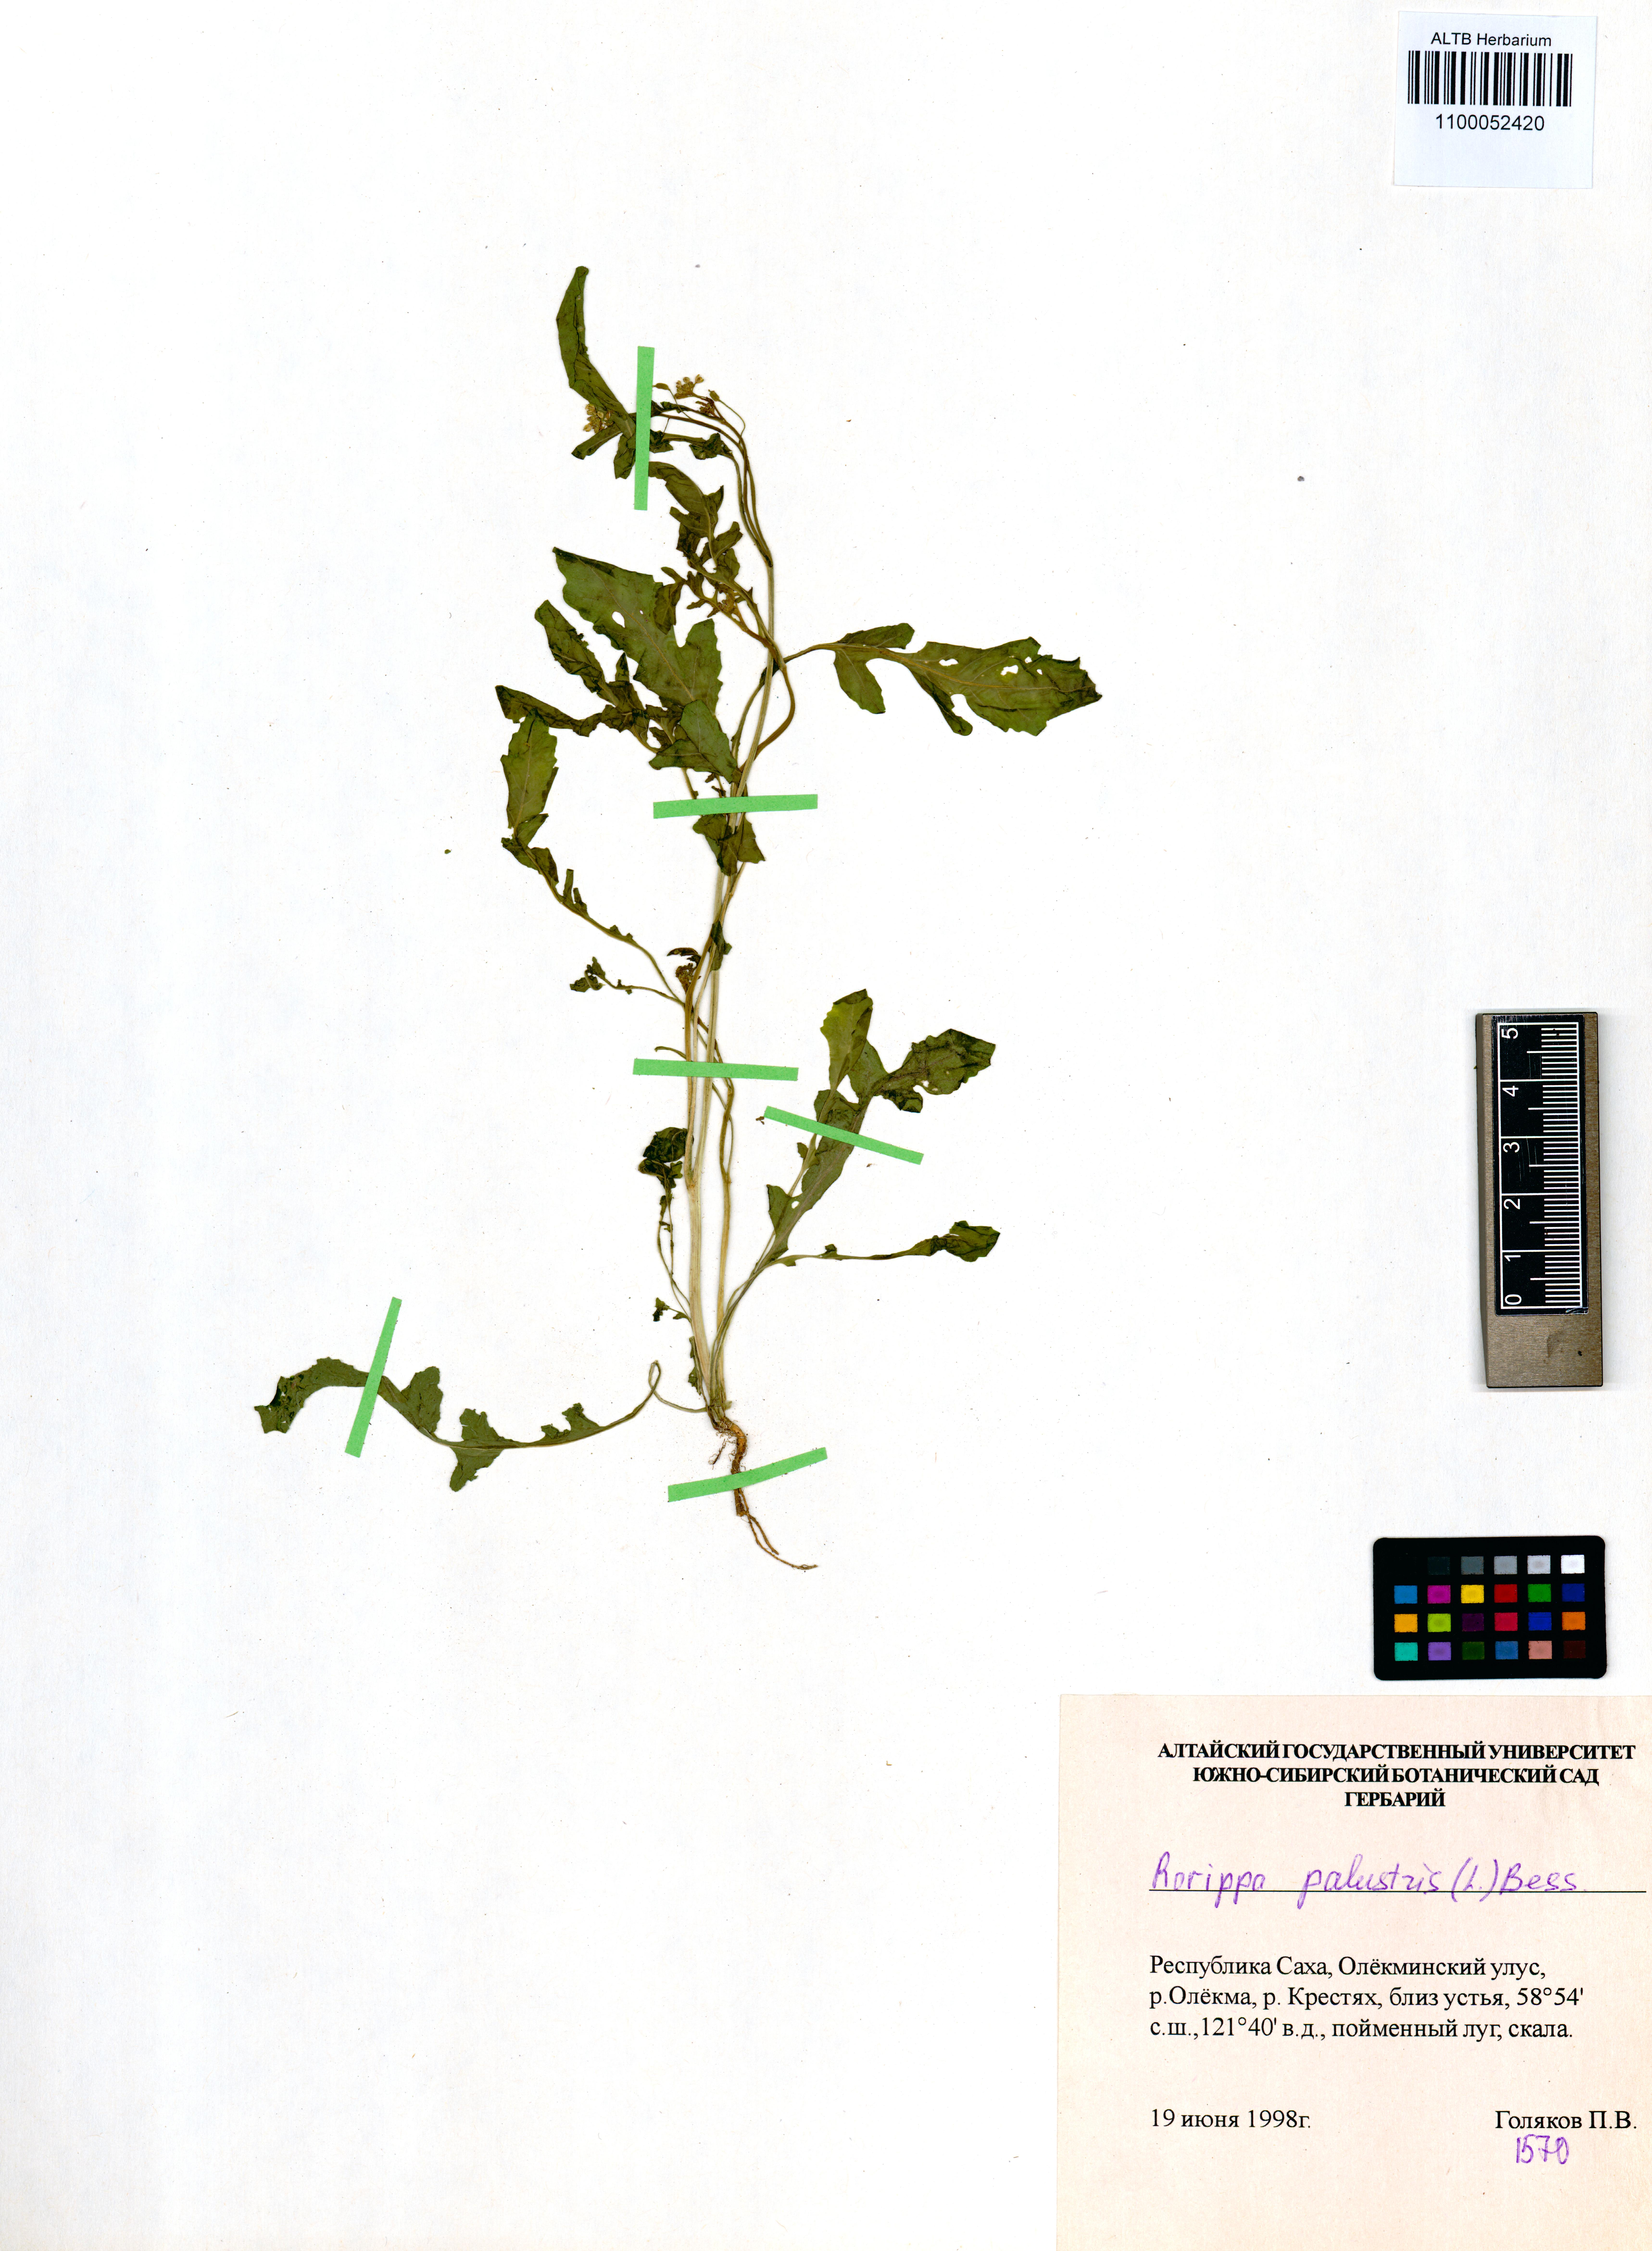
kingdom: Plantae
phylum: Tracheophyta
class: Magnoliopsida
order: Brassicales
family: Brassicaceae
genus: Rorippa
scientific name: Rorippa palustris
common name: Marsh yellow-cress
